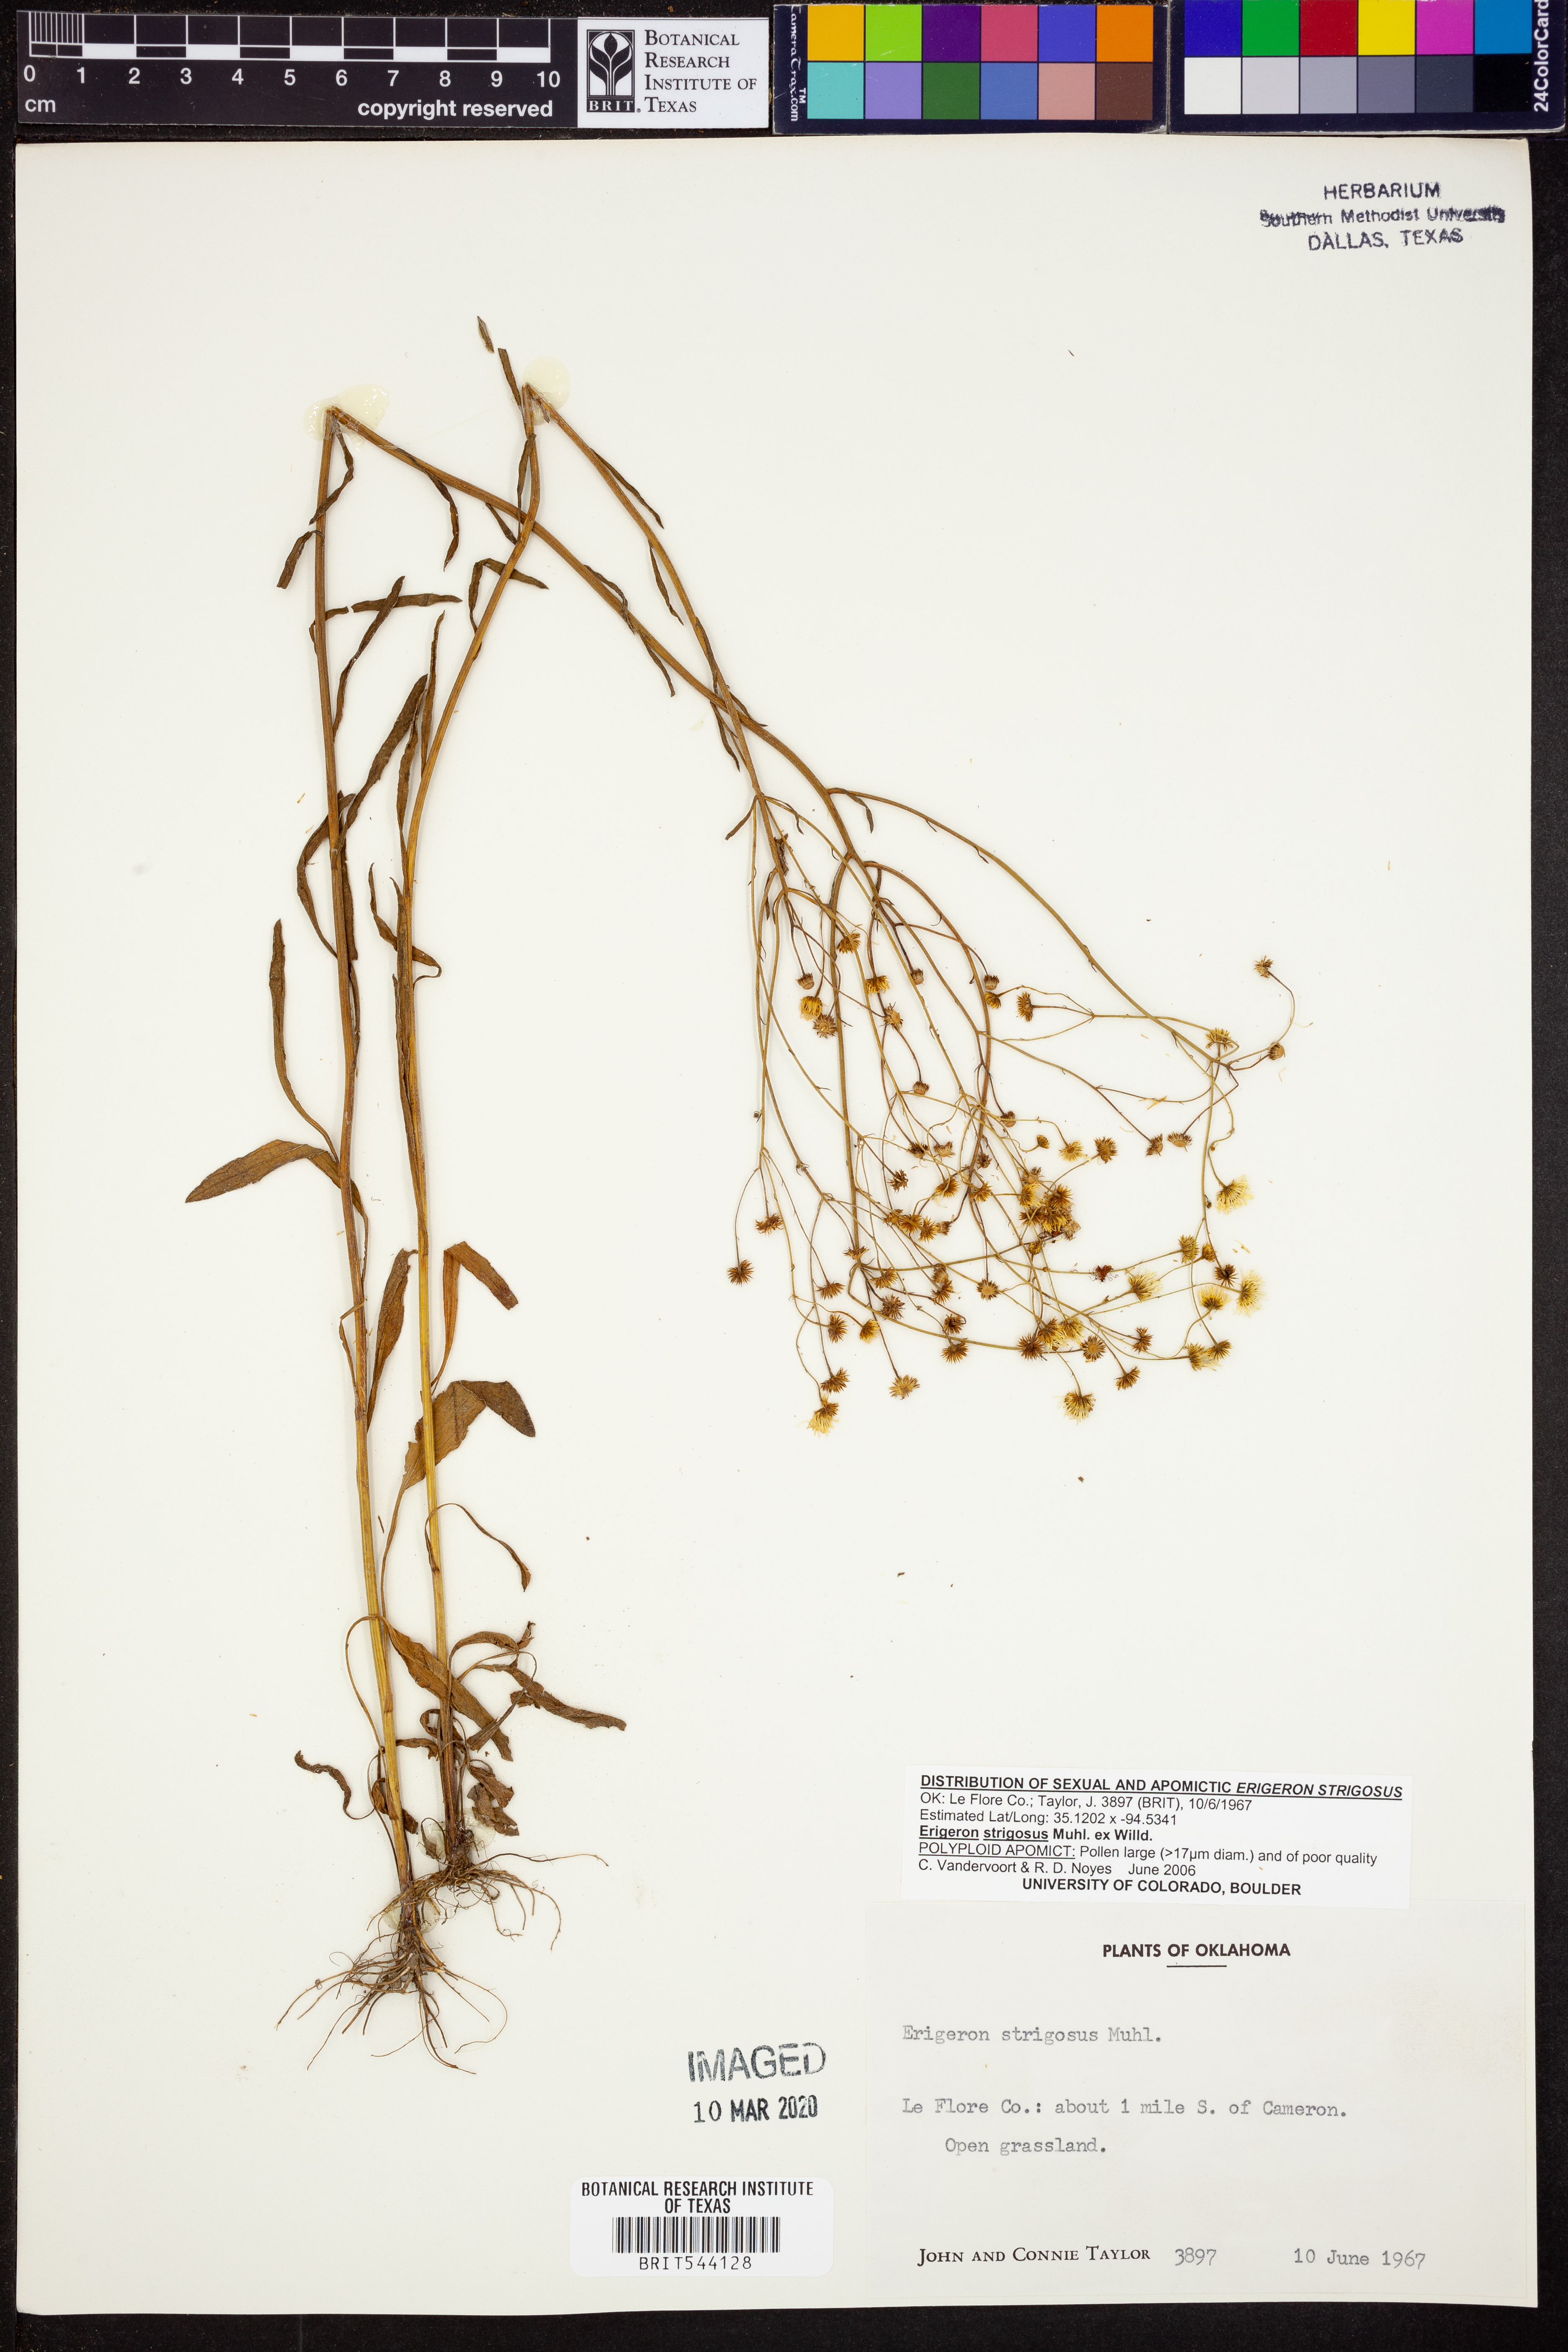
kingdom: Plantae
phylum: Tracheophyta
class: Magnoliopsida
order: Asterales
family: Asteraceae
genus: Erigeron
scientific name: Erigeron strigosus
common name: Common eastern fleabane
